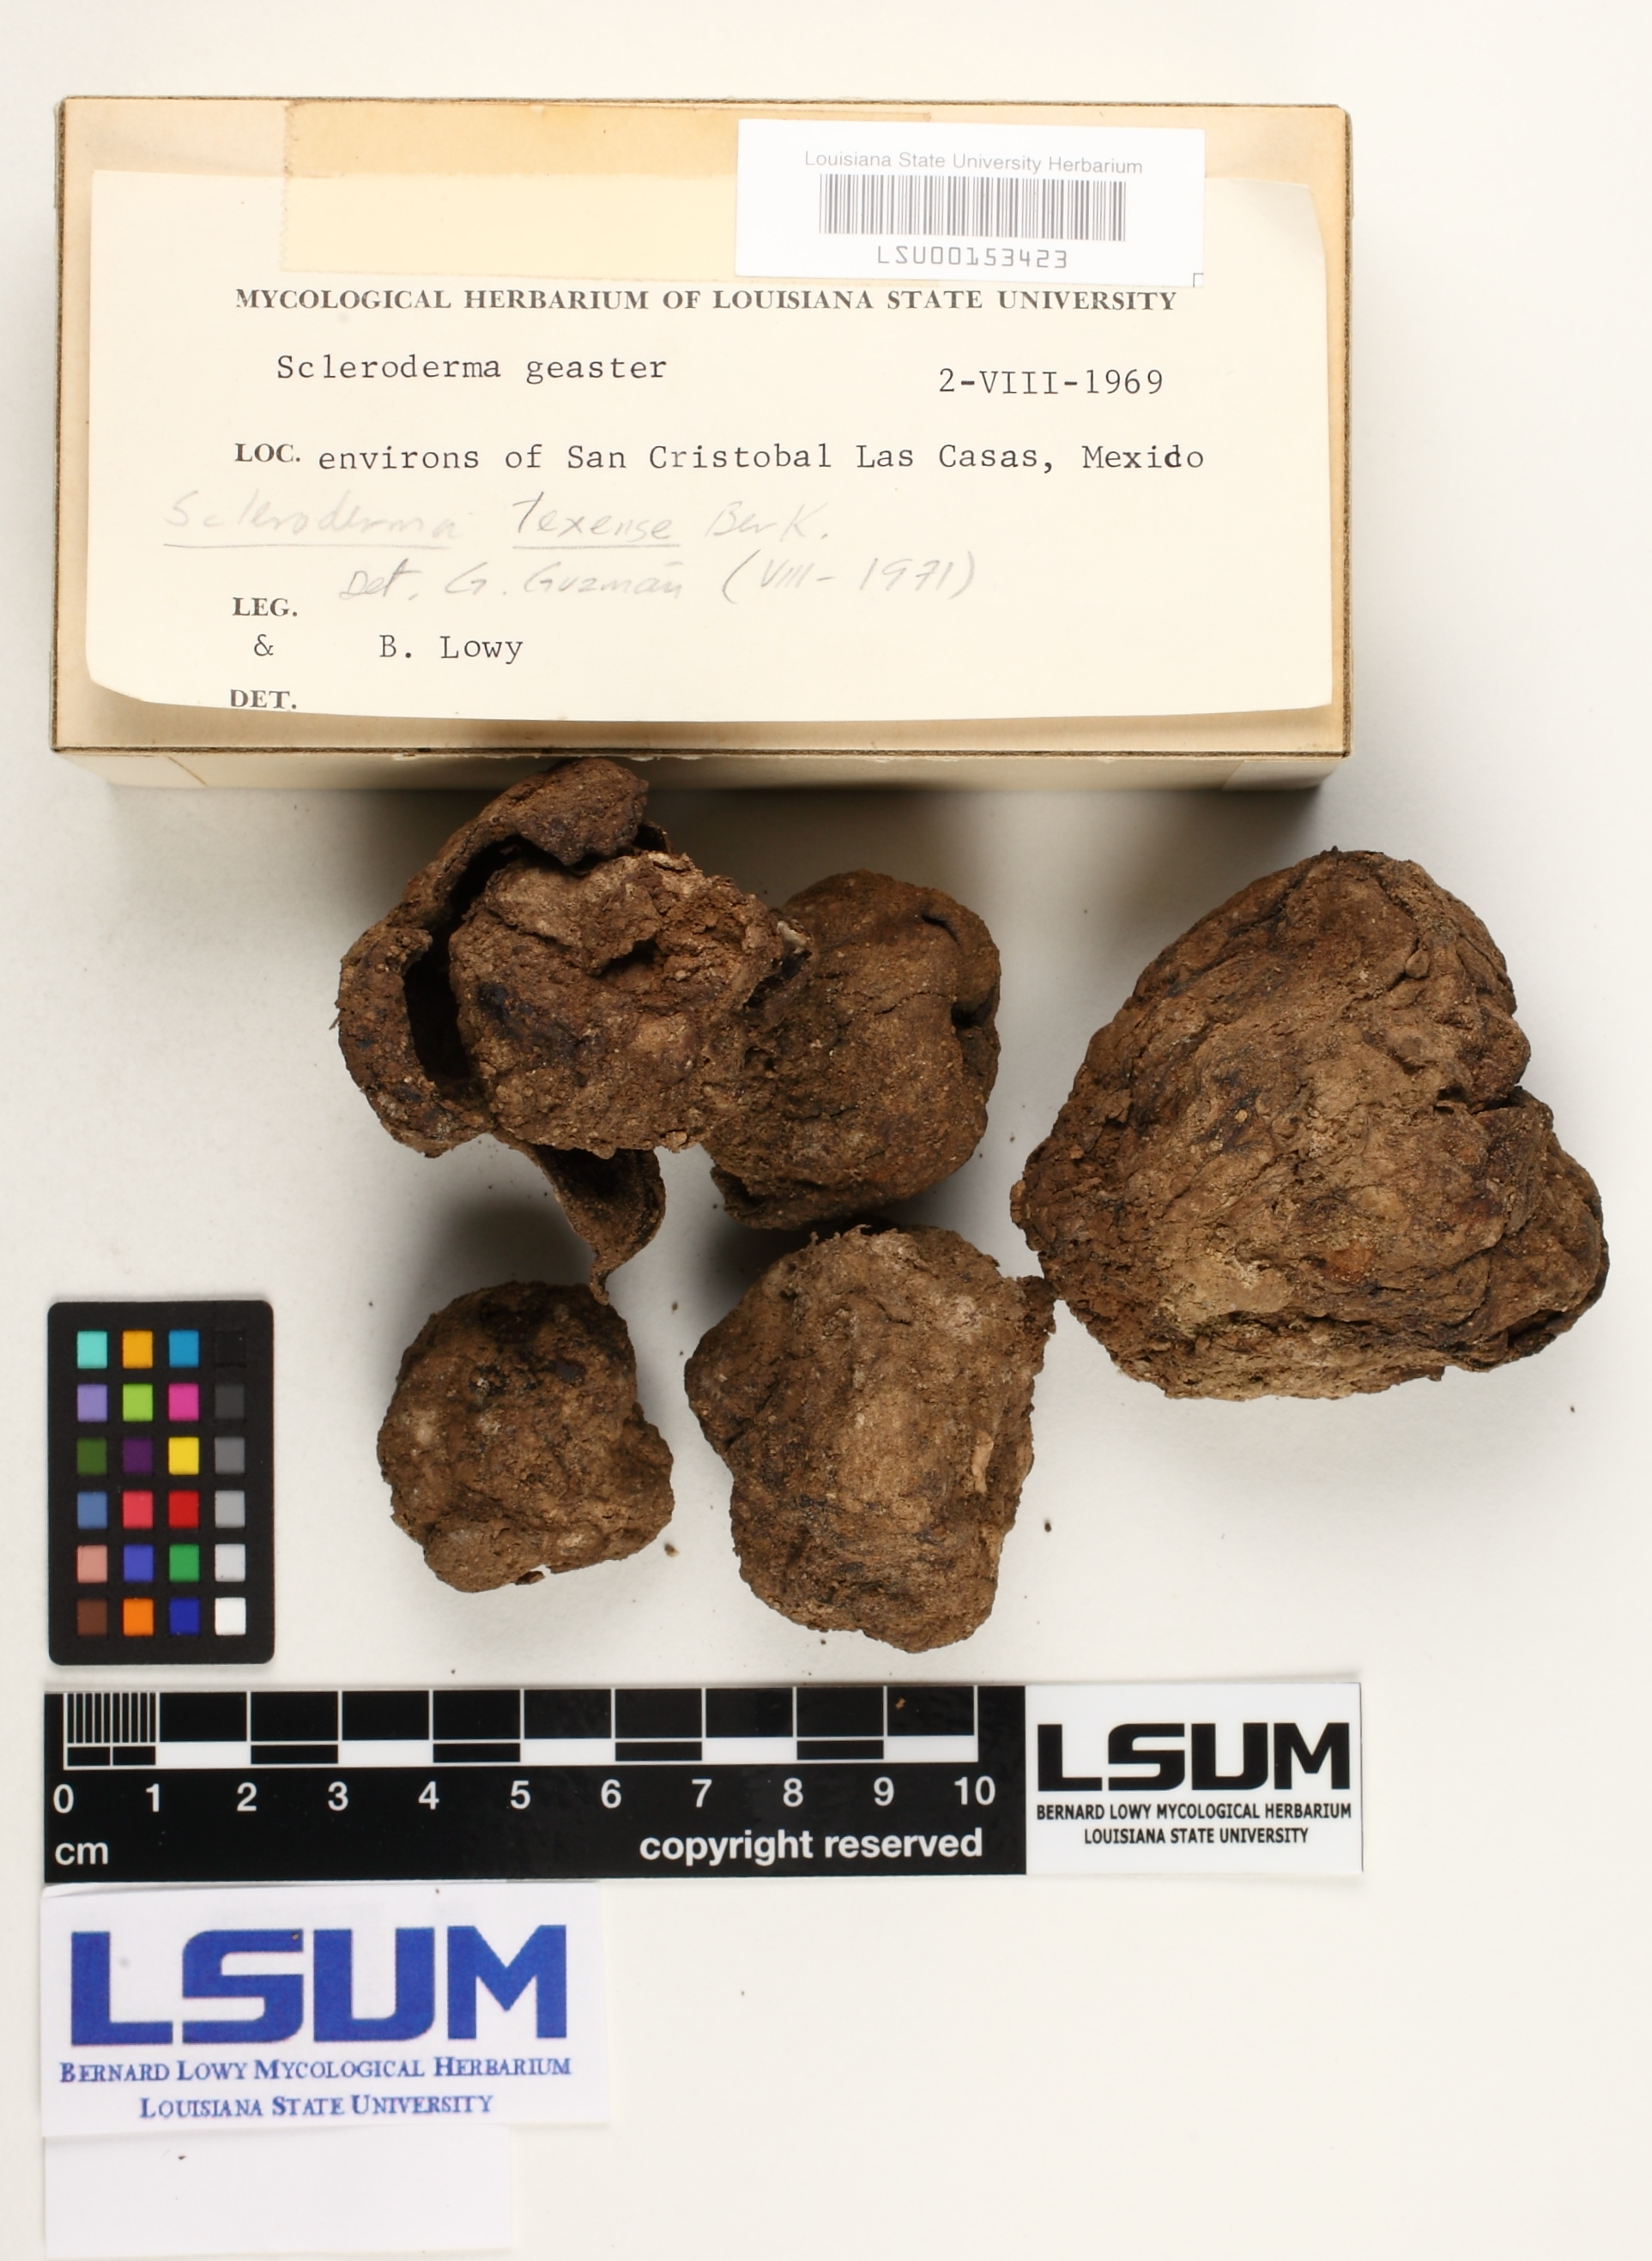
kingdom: Fungi
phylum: Basidiomycota
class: Agaricomycetes
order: Boletales
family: Sclerodermataceae
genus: Scleroderma
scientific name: Scleroderma texense
